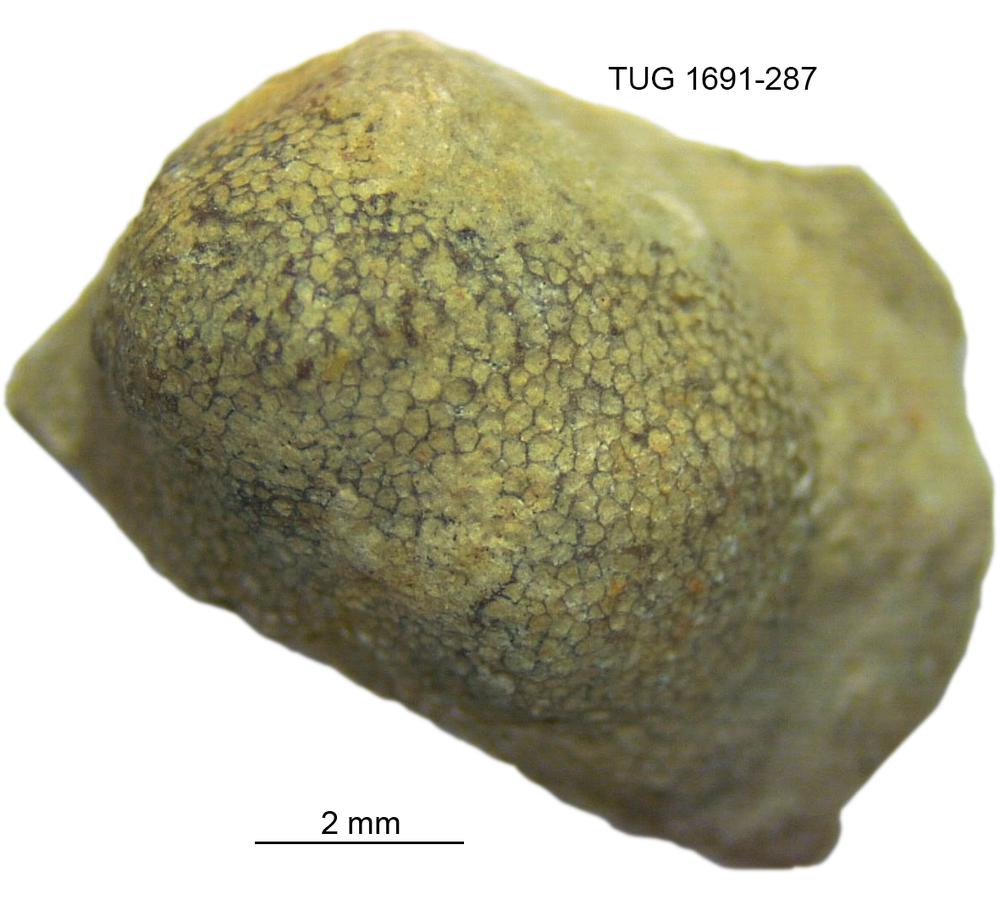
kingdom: Animalia
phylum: Bryozoa
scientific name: Bryozoa
